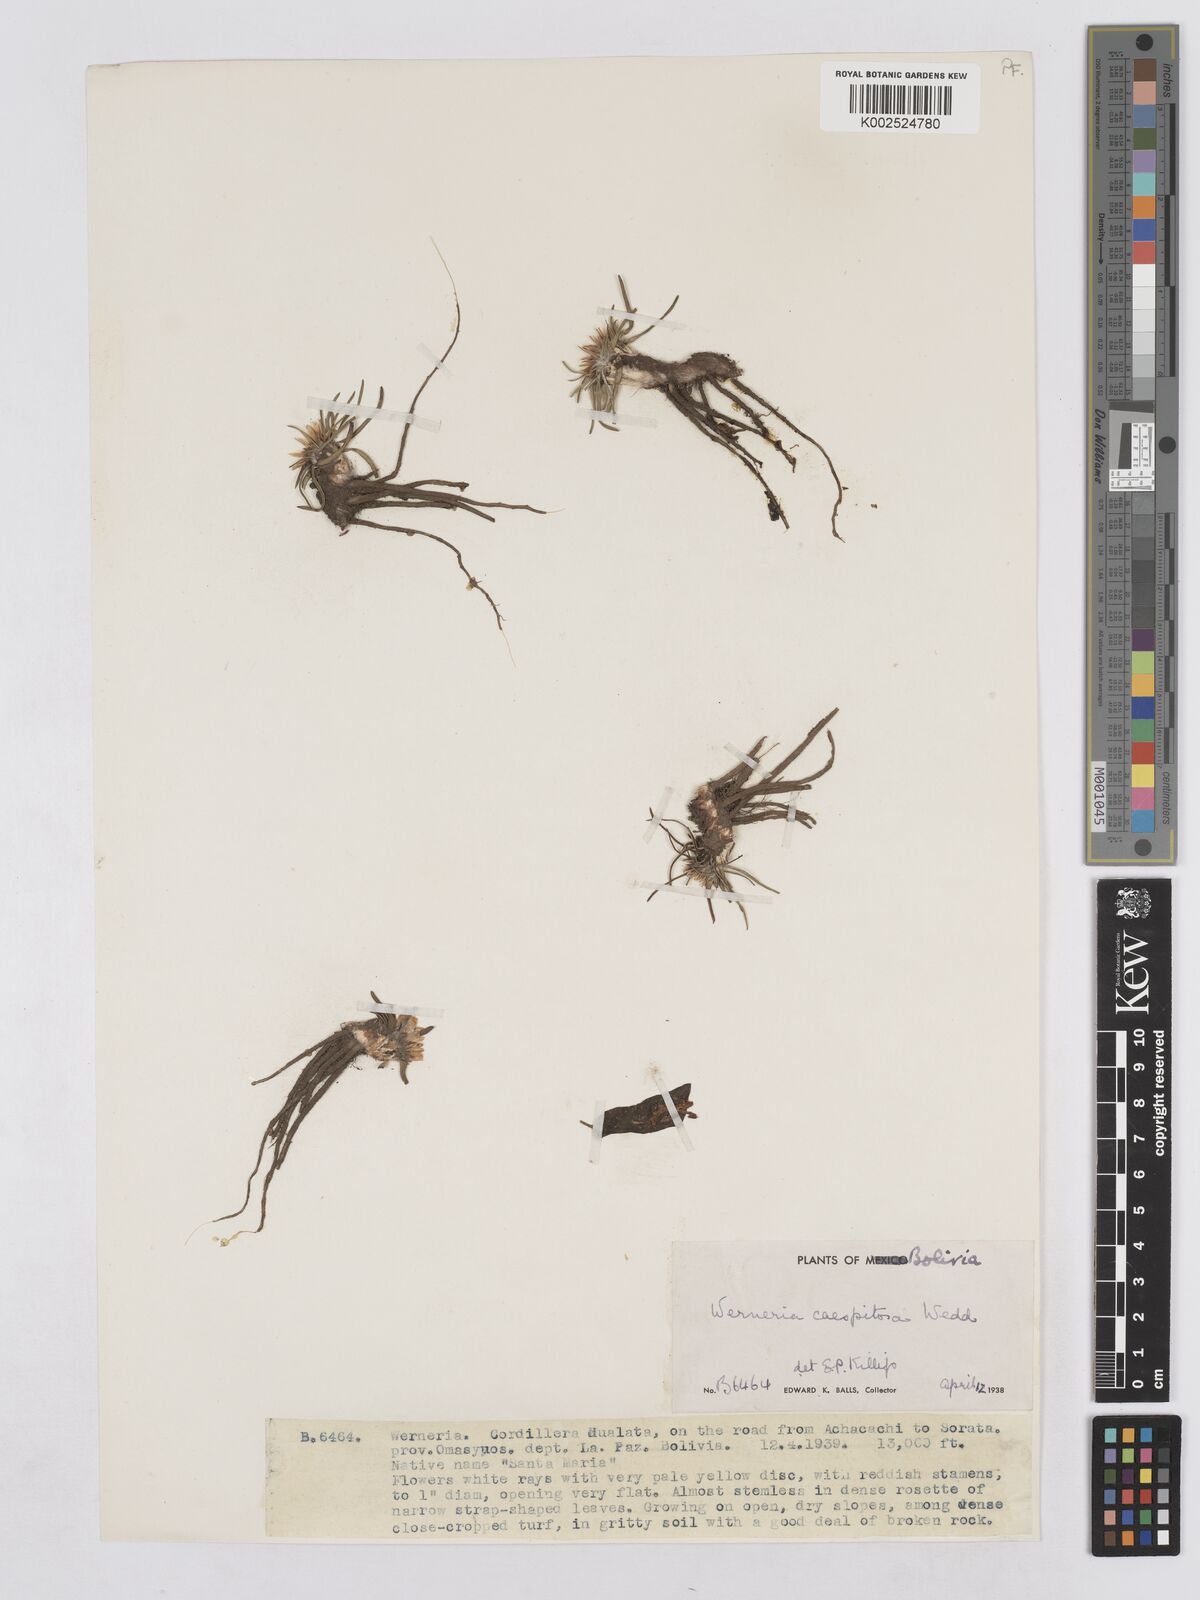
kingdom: Plantae
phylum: Tracheophyta
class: Magnoliopsida
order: Asterales
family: Asteraceae
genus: Rockhausenia
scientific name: Rockhausenia caespitosa
